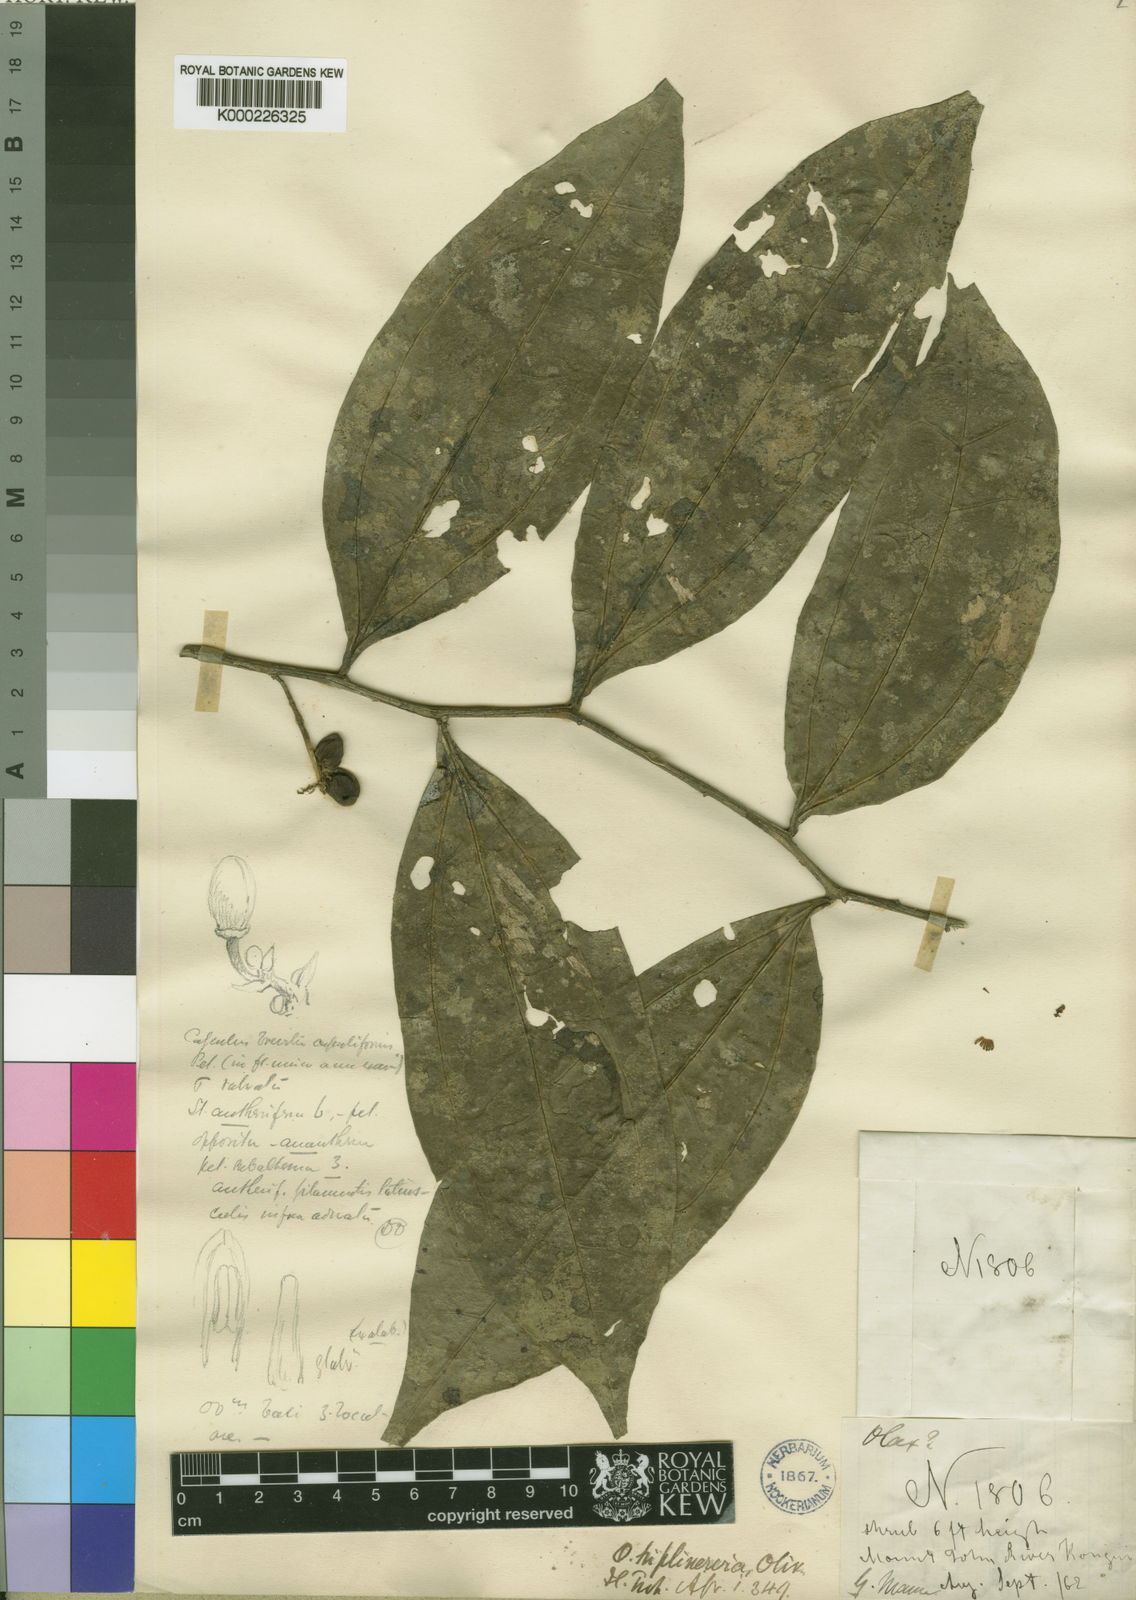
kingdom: Plantae
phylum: Tracheophyta
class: Magnoliopsida
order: Santalales
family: Olacaceae
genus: Olax
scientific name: Olax triplinervia
